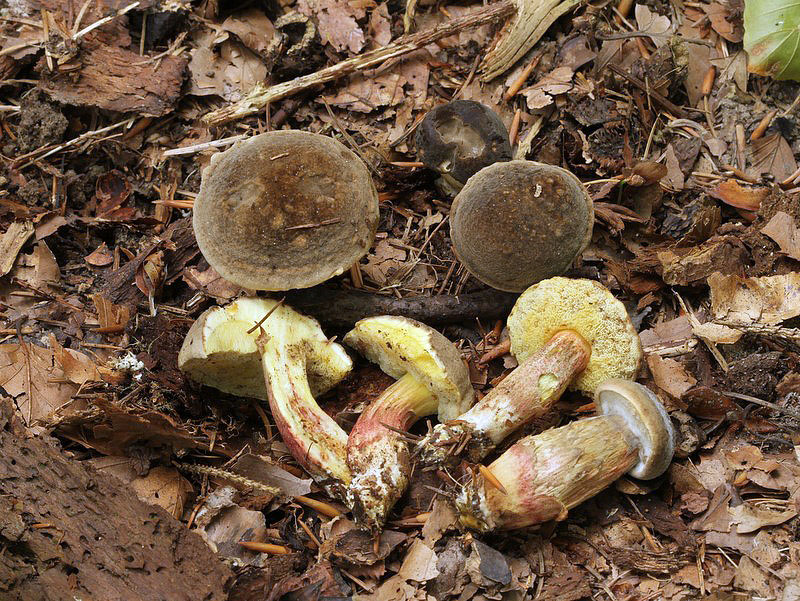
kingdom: Fungi
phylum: Basidiomycota
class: Agaricomycetes
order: Boletales
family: Boletaceae
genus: Xerocomellus
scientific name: Xerocomellus chrysenteron
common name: rødsprukken rørhat
